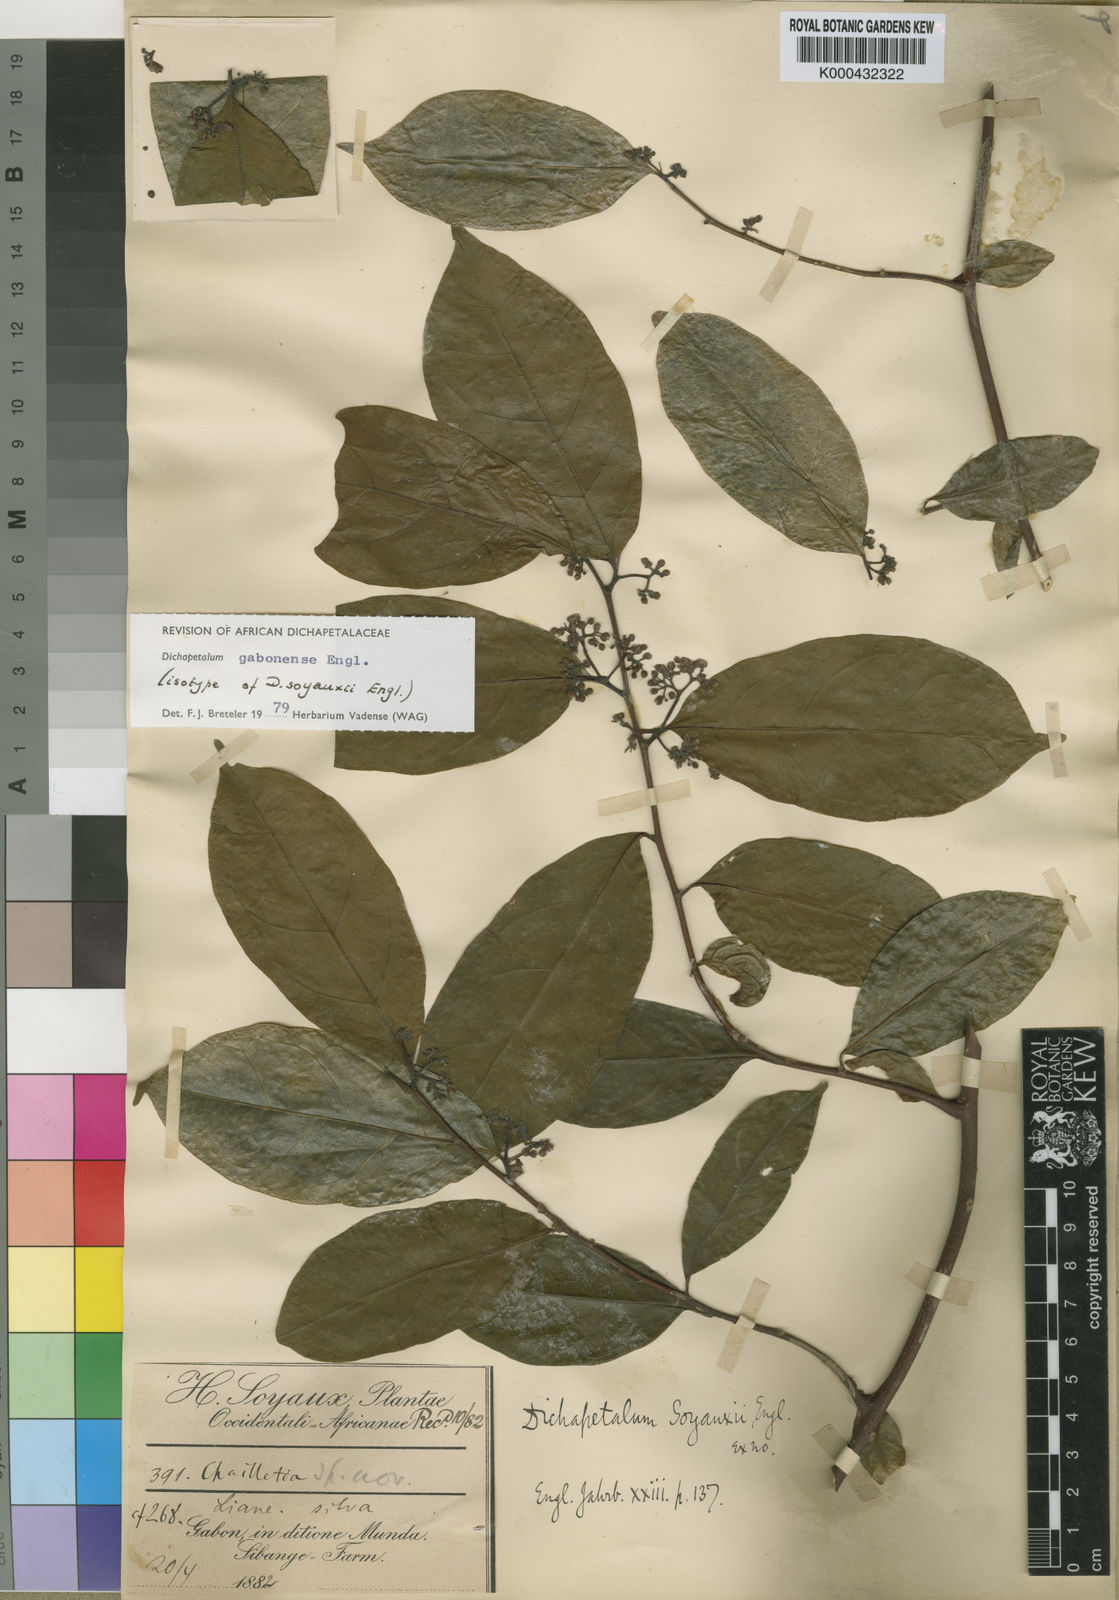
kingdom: Plantae
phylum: Tracheophyta
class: Magnoliopsida
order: Malpighiales
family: Dichapetalaceae
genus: Dichapetalum
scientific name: Dichapetalum gabonense
